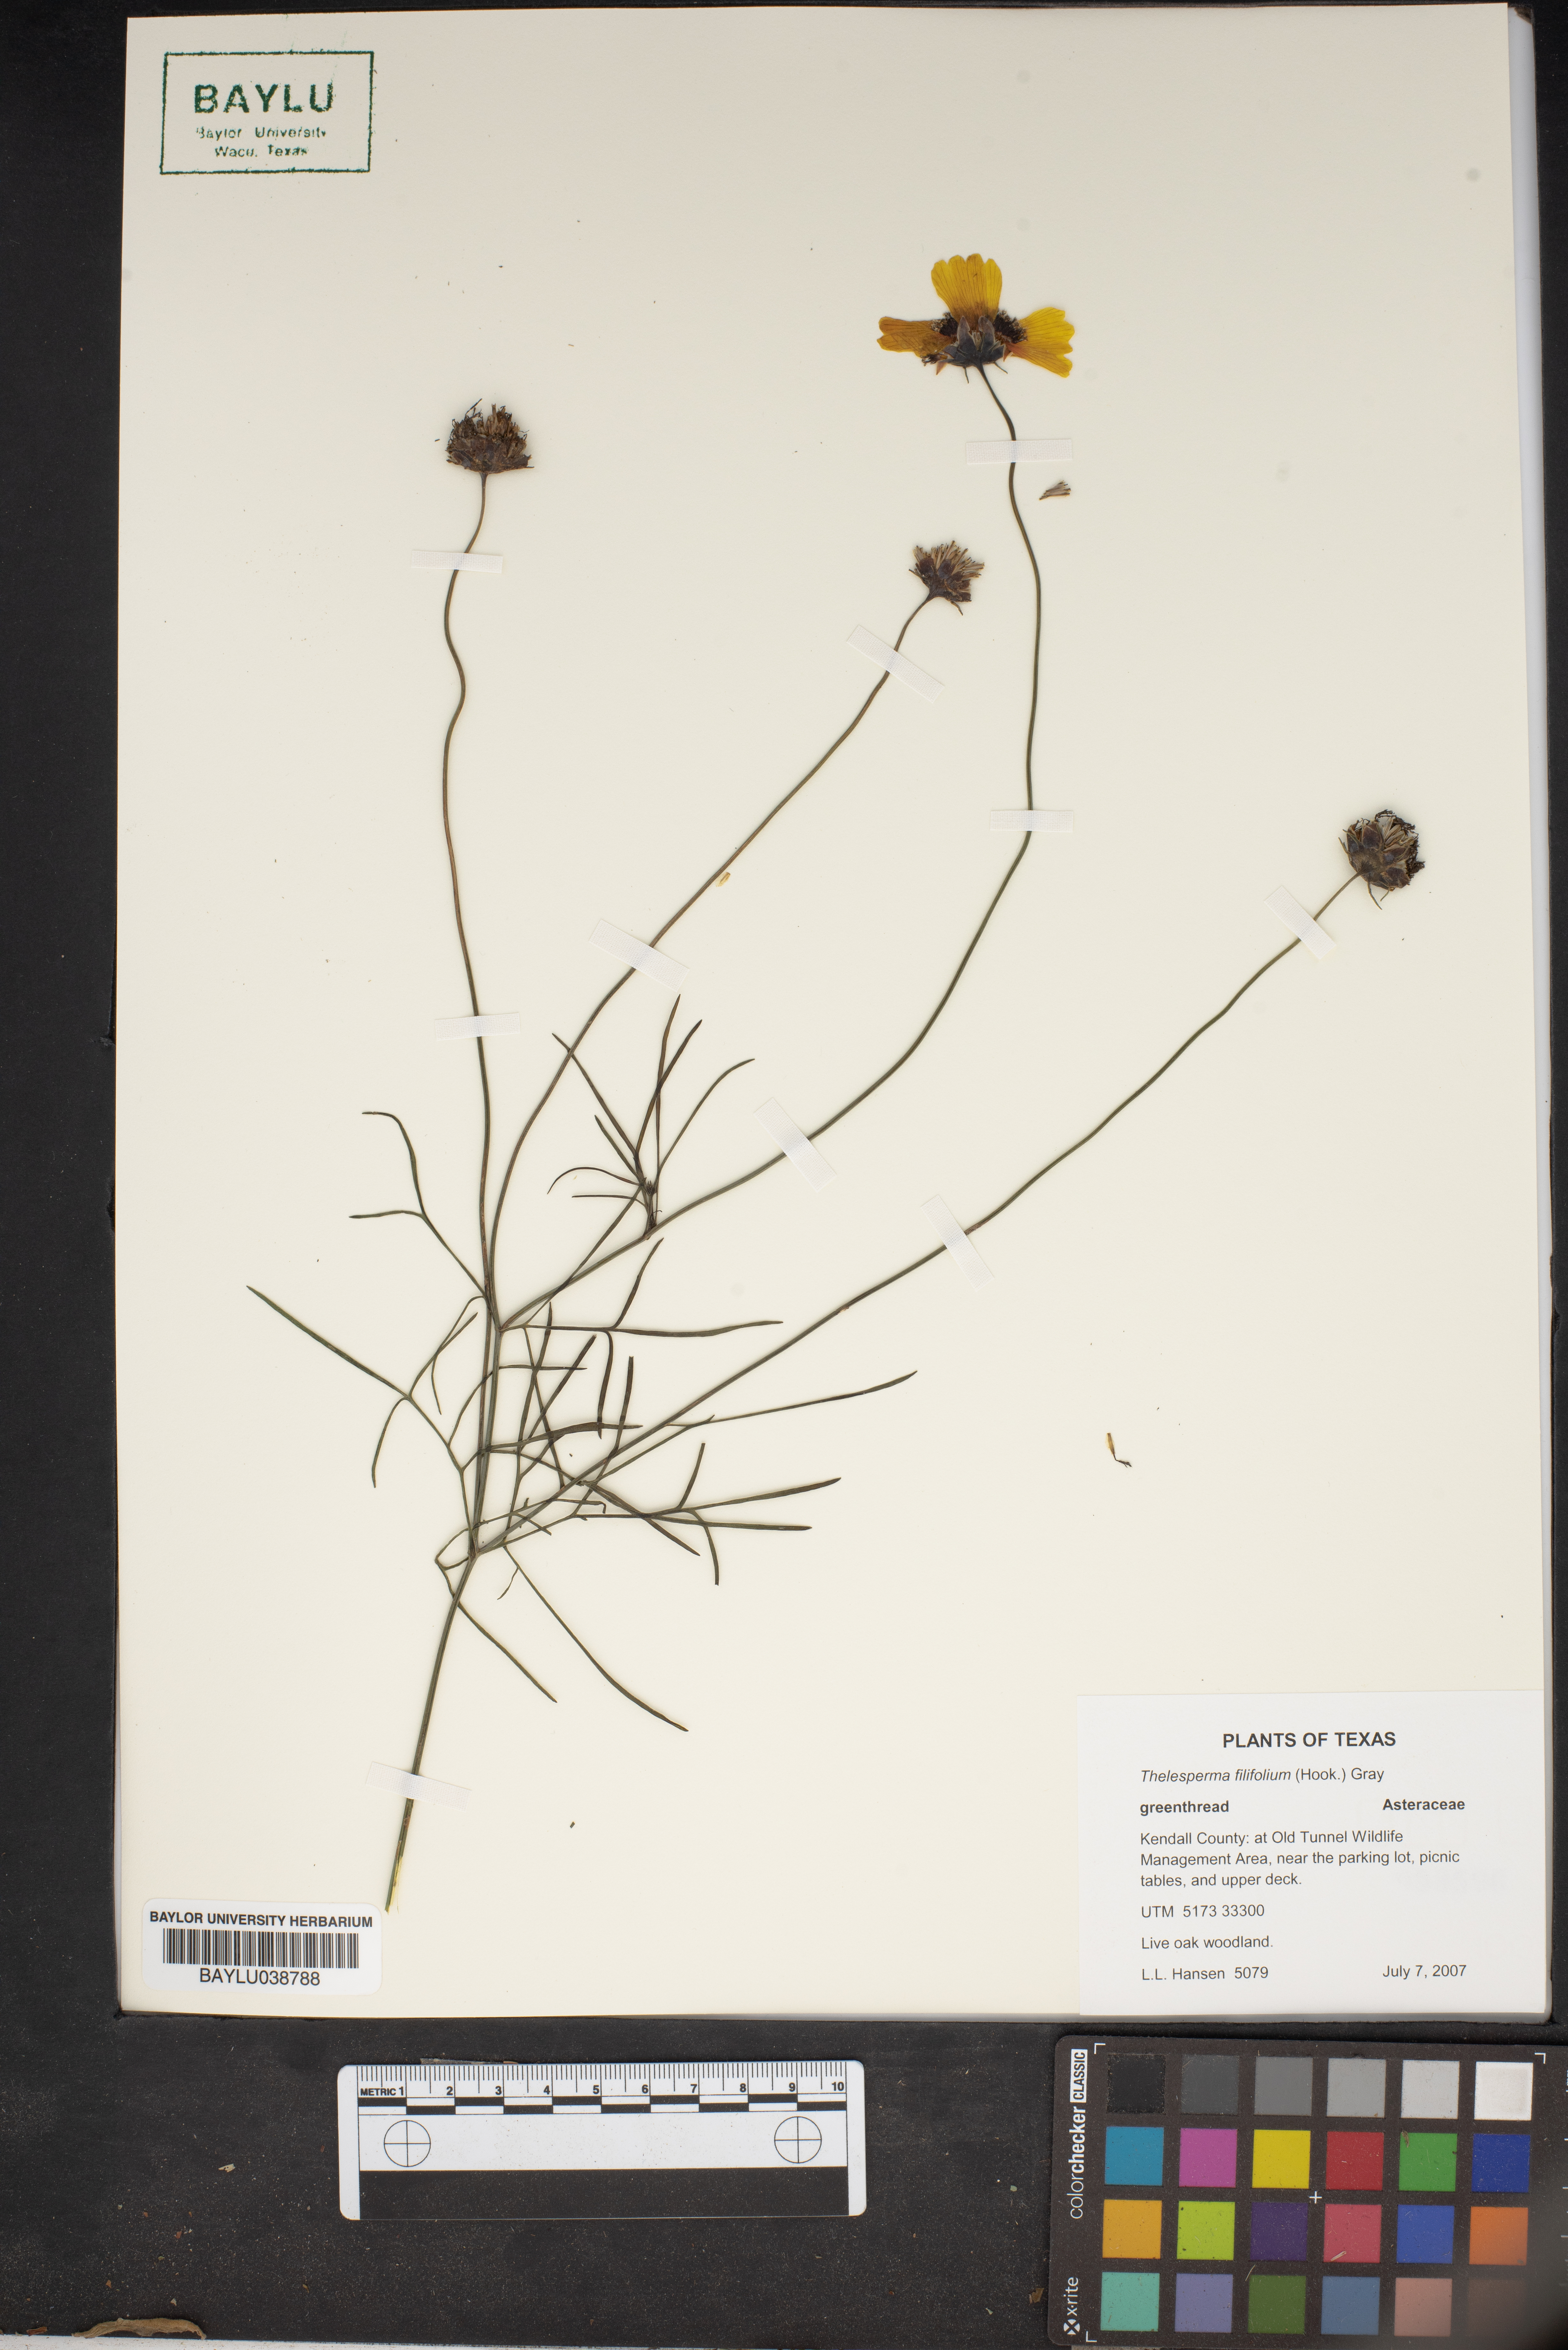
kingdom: Plantae
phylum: Tracheophyta
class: Magnoliopsida
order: Asterales
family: Asteraceae
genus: Thelesperma
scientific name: Thelesperma filifolium
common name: Stiff greenthread
